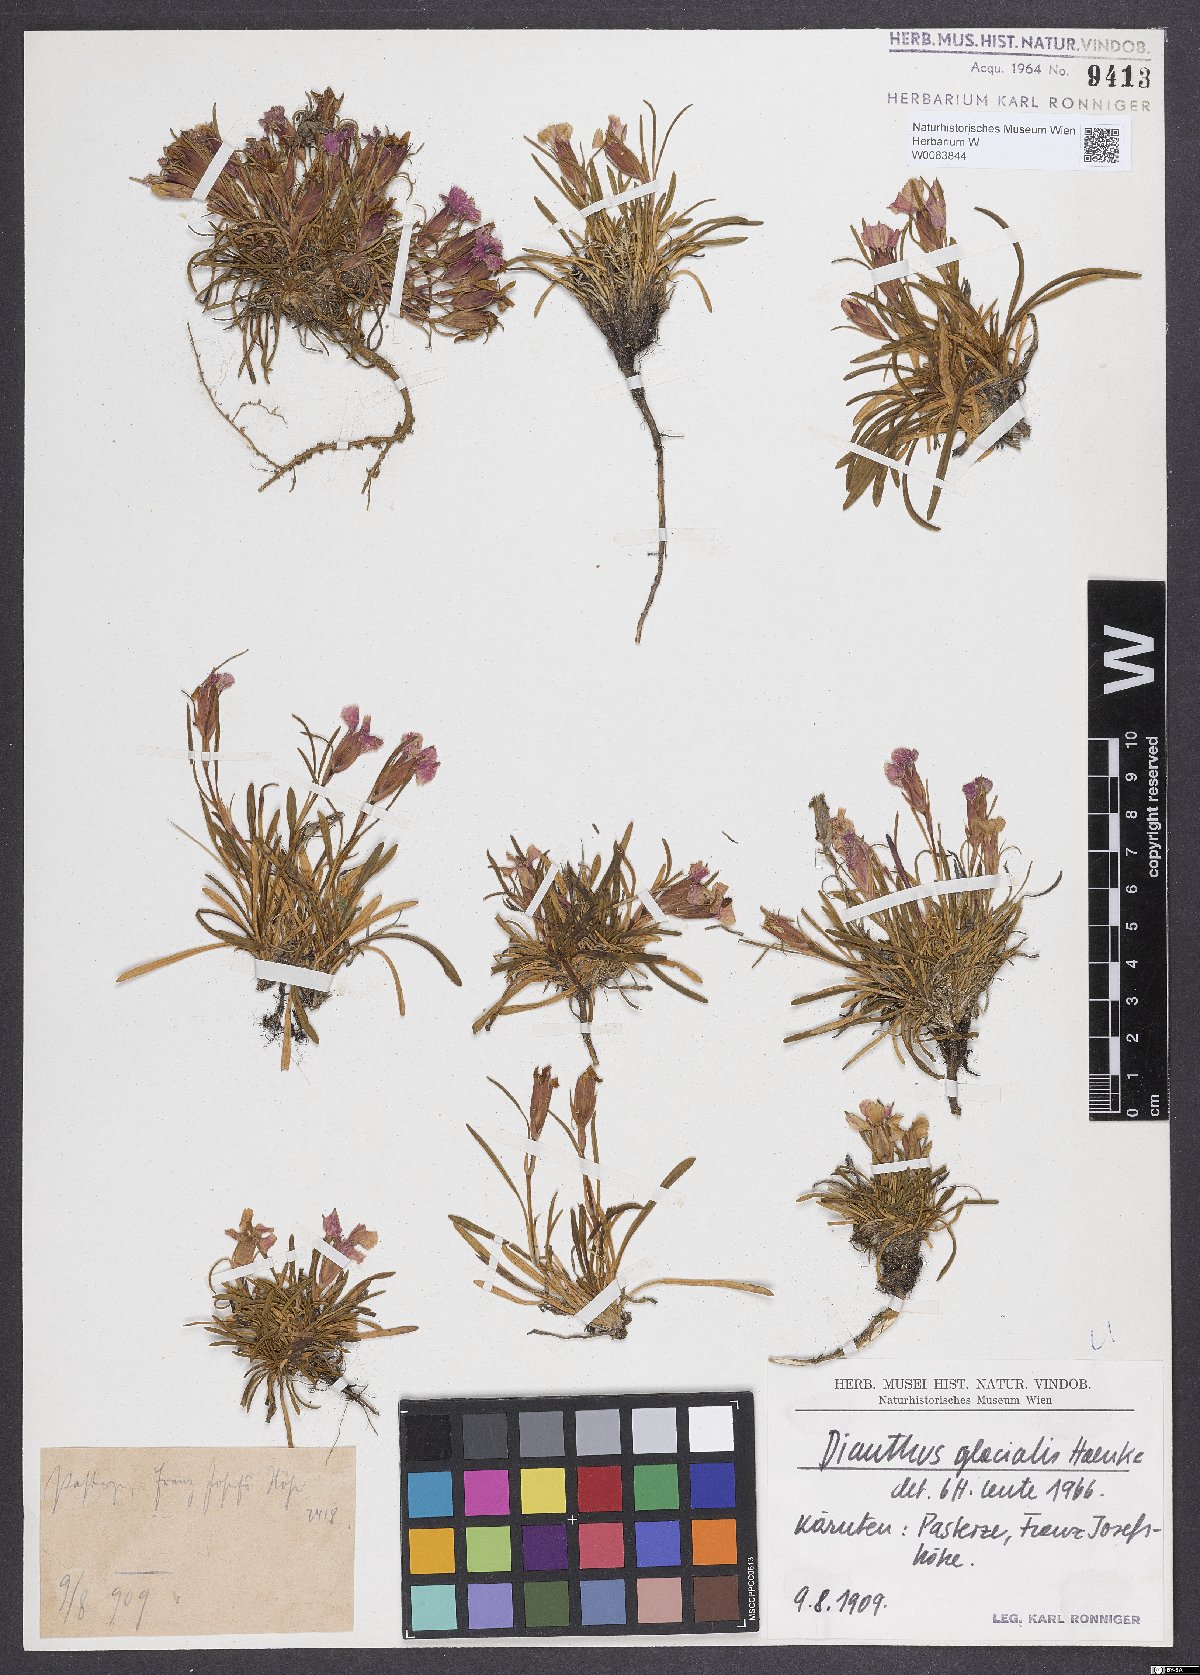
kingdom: Plantae
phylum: Tracheophyta
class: Magnoliopsida
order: Caryophyllales
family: Caryophyllaceae
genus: Dianthus
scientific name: Dianthus glacialis
